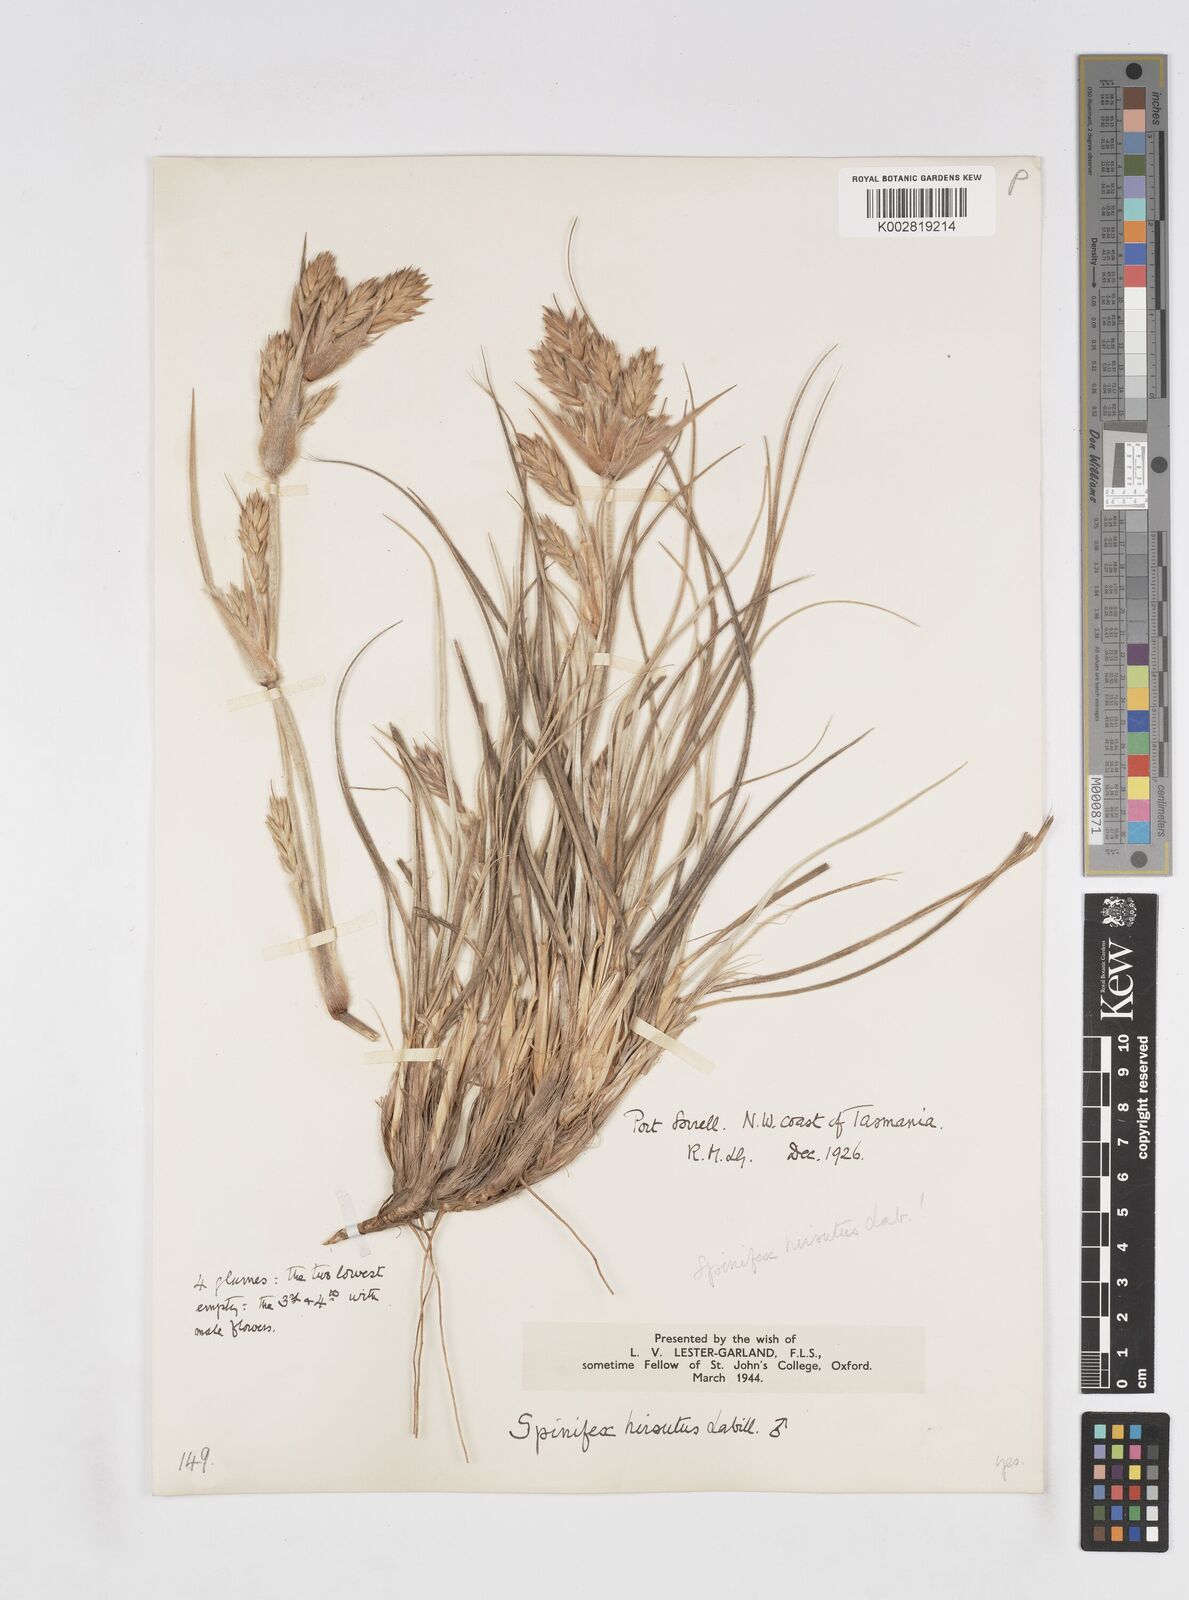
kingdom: Plantae
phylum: Tracheophyta
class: Liliopsida
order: Poales
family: Poaceae
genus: Spinifex
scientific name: Spinifex hirsutus
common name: Hairy spinifex
